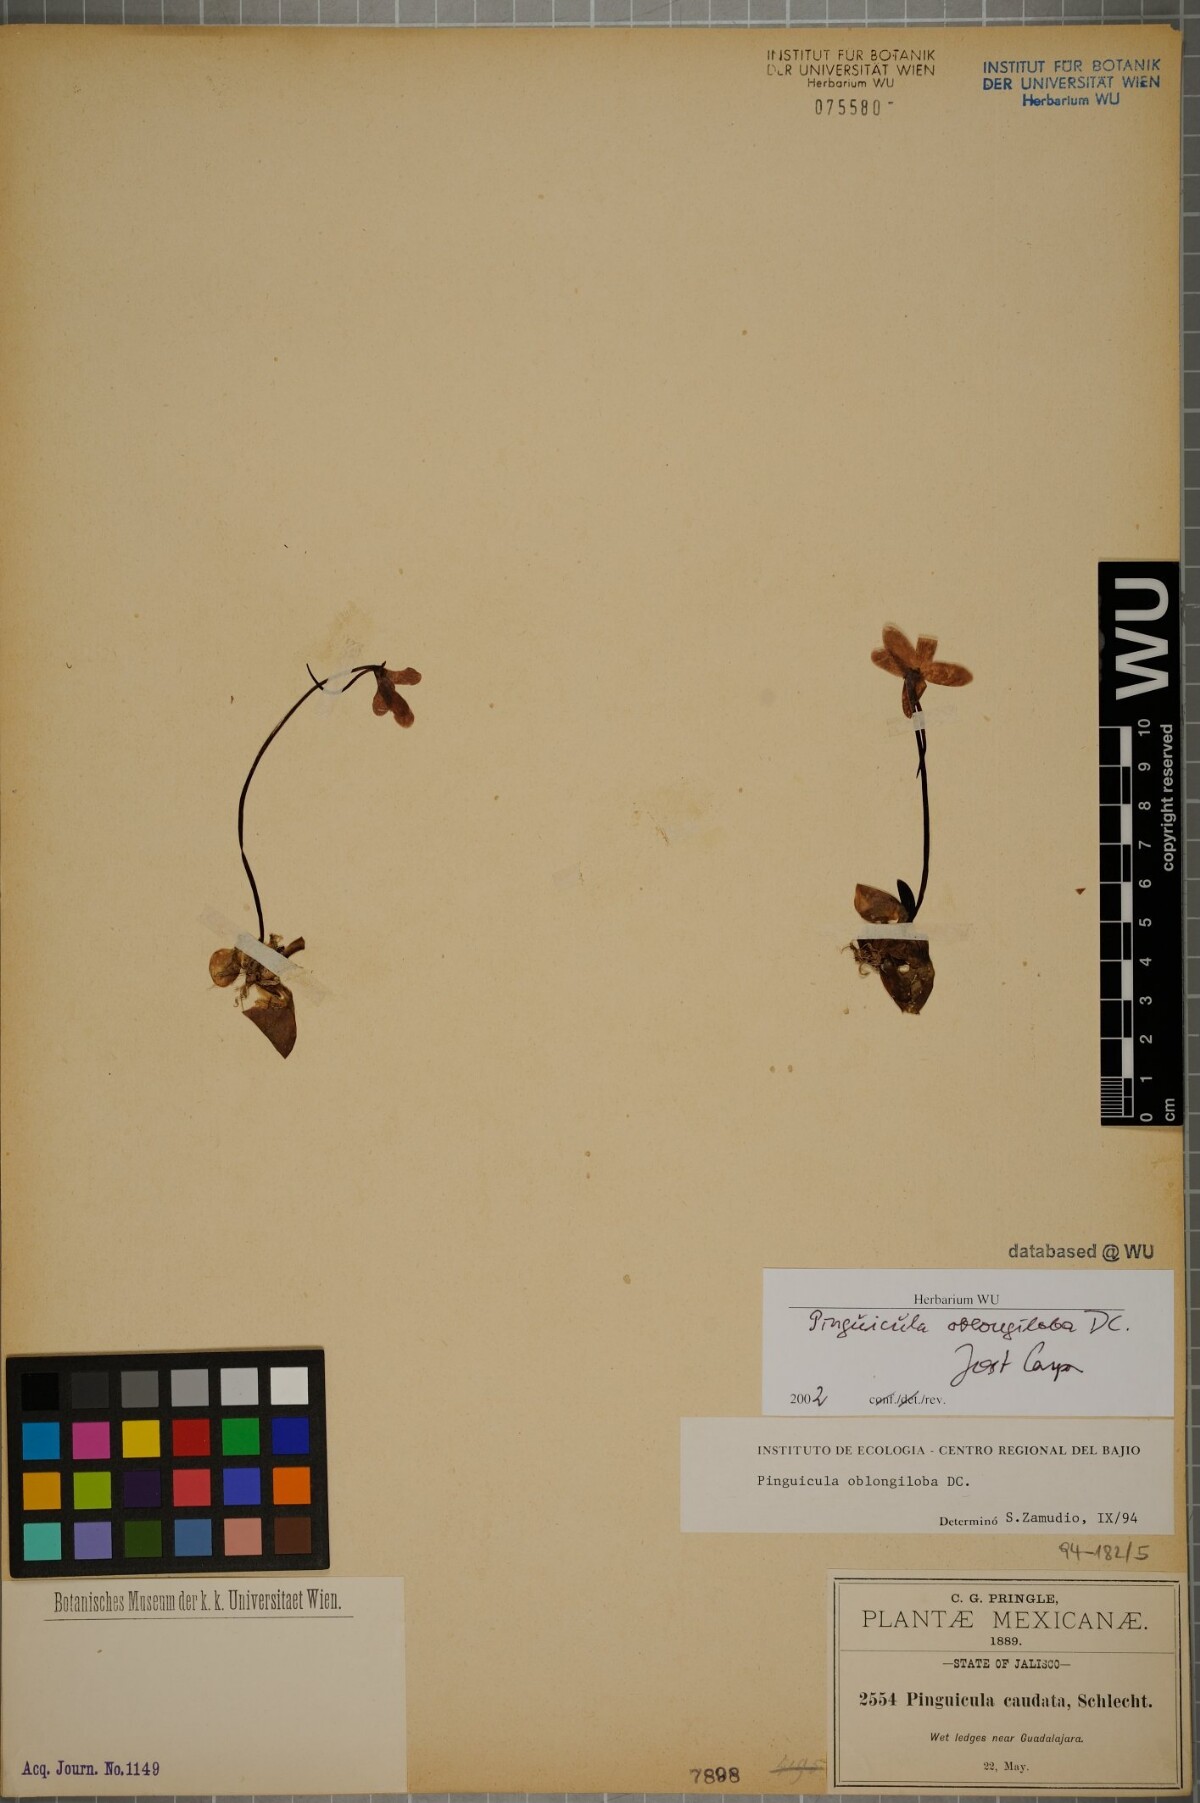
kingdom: Plantae
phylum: Tracheophyta
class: Magnoliopsida
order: Lamiales
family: Lentibulariaceae
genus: Pinguicula
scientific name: Pinguicula oblongiloba
